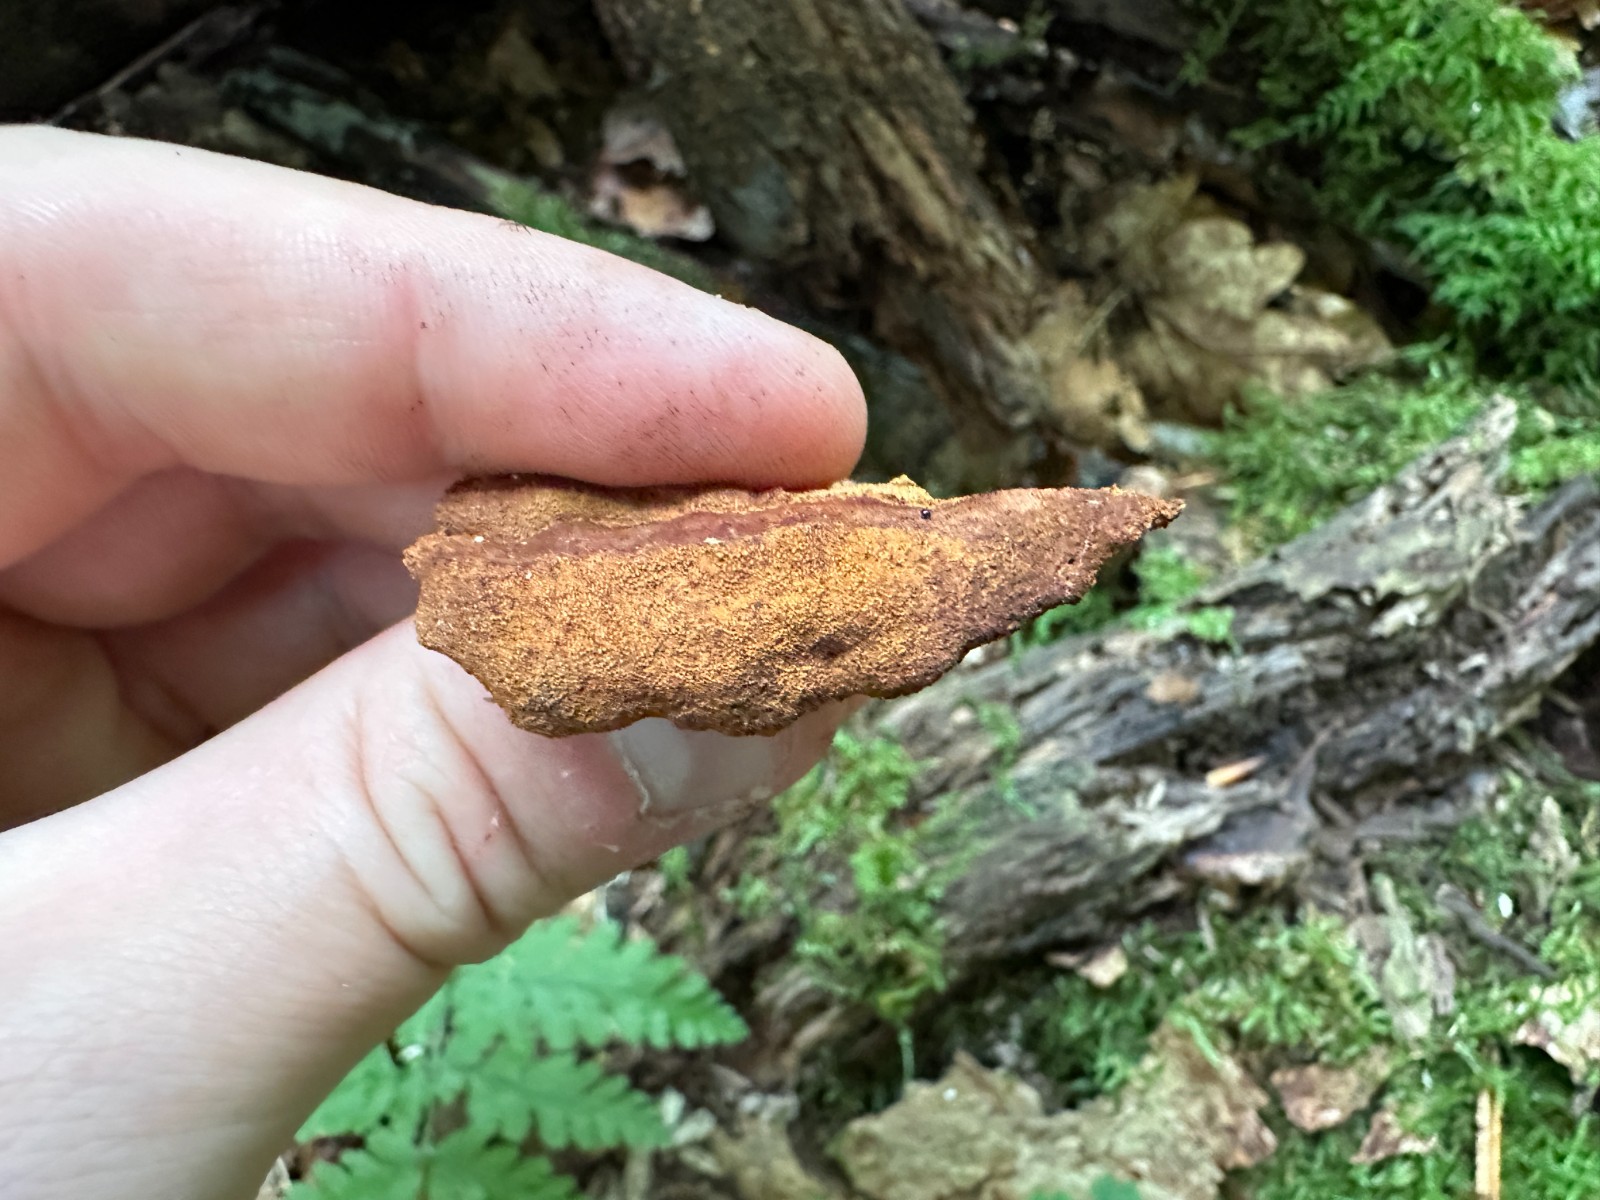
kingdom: Fungi
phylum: Basidiomycota
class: Agaricomycetes
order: Hymenochaetales
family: Hymenochaetaceae
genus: Fuscoporia
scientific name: Fuscoporia ferrea
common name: skorpe-ildporesvamp
